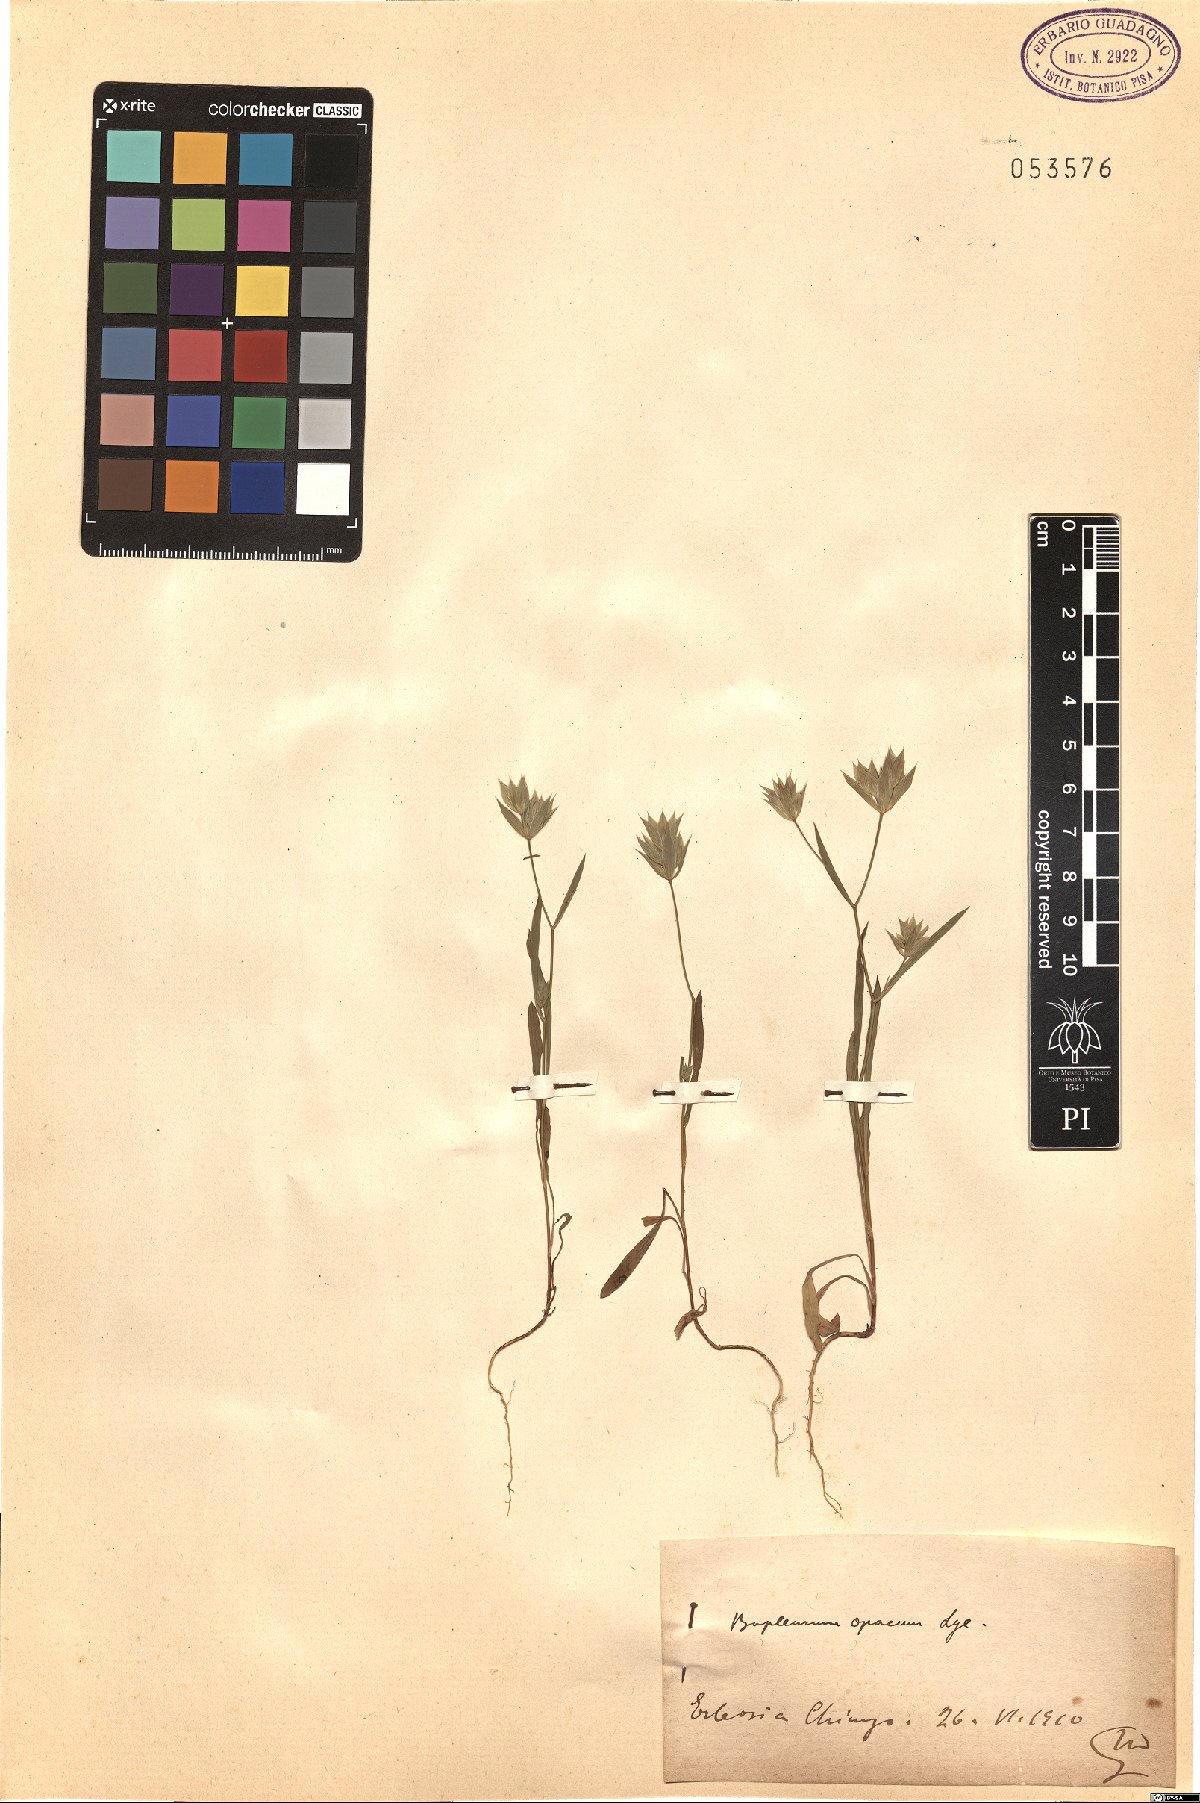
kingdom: Plantae
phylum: Tracheophyta
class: Magnoliopsida
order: Apiales
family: Apiaceae
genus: Bupleurum
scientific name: Bupleurum baldense
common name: Small hare's-ear
